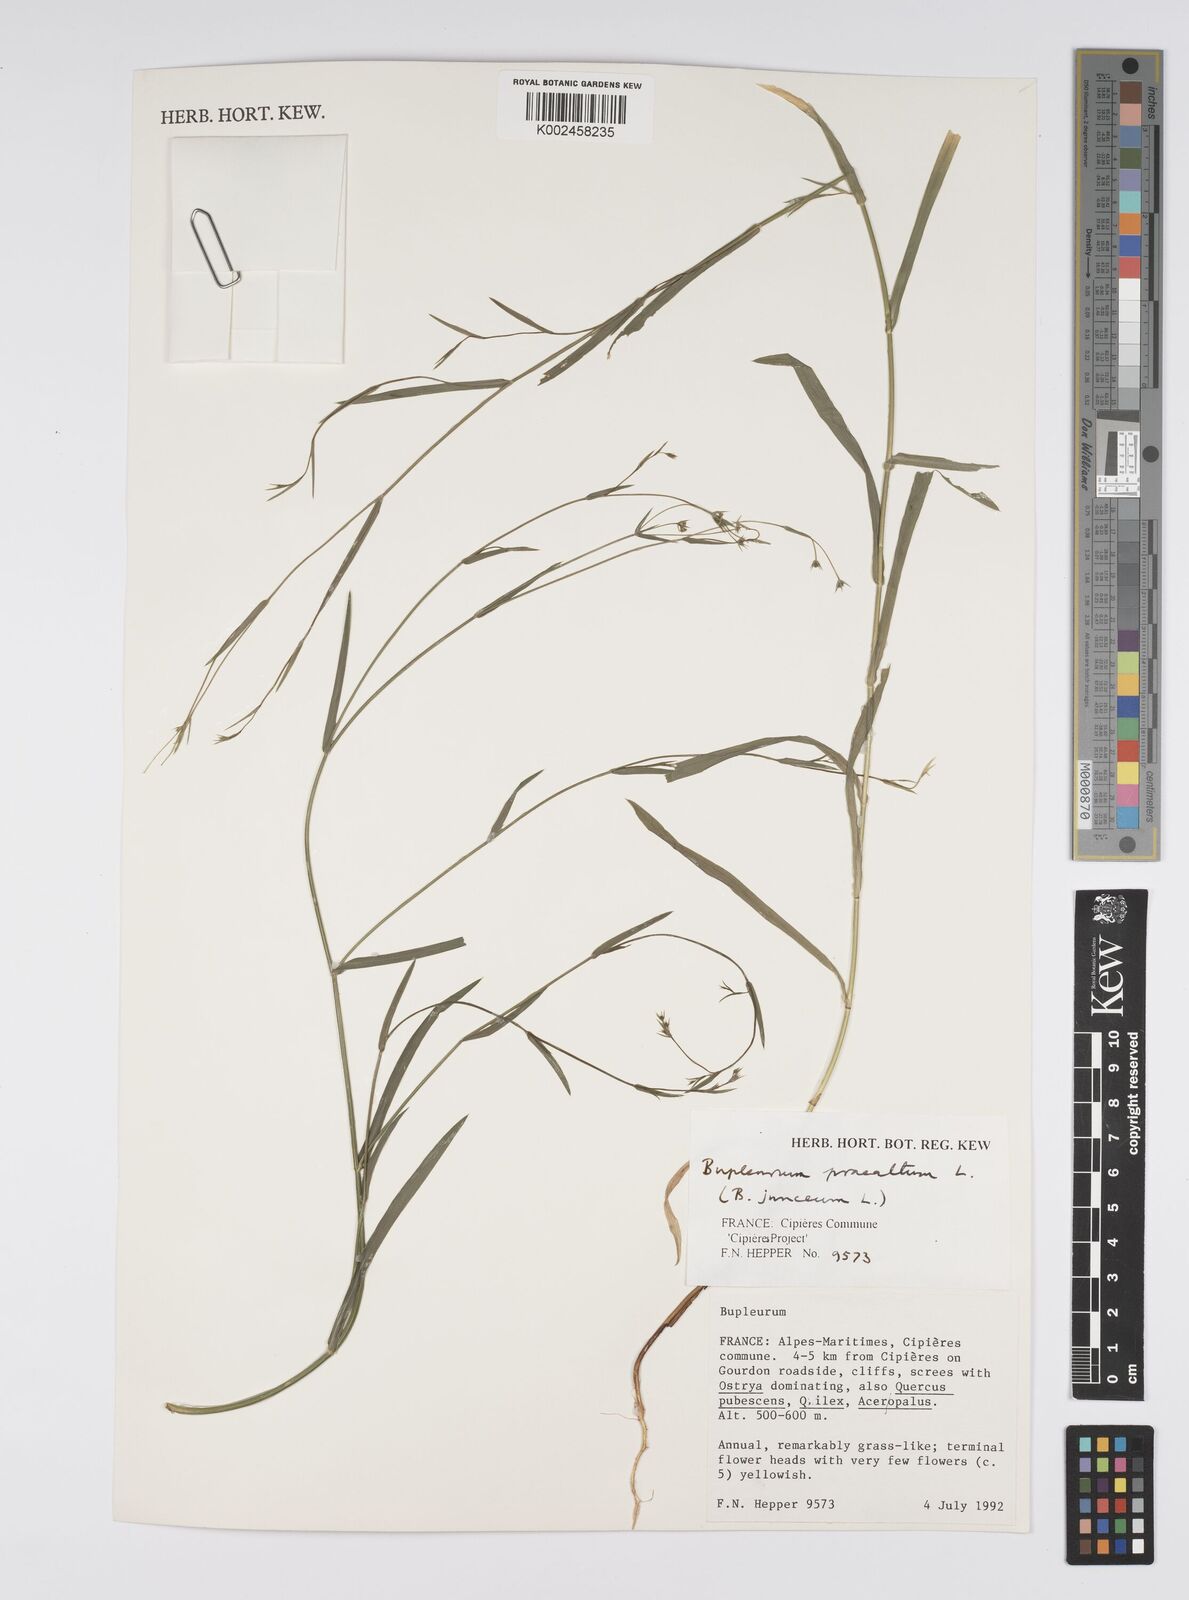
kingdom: Plantae
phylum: Tracheophyta
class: Magnoliopsida
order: Apiales
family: Apiaceae
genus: Bupleurum
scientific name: Bupleurum praealtum
